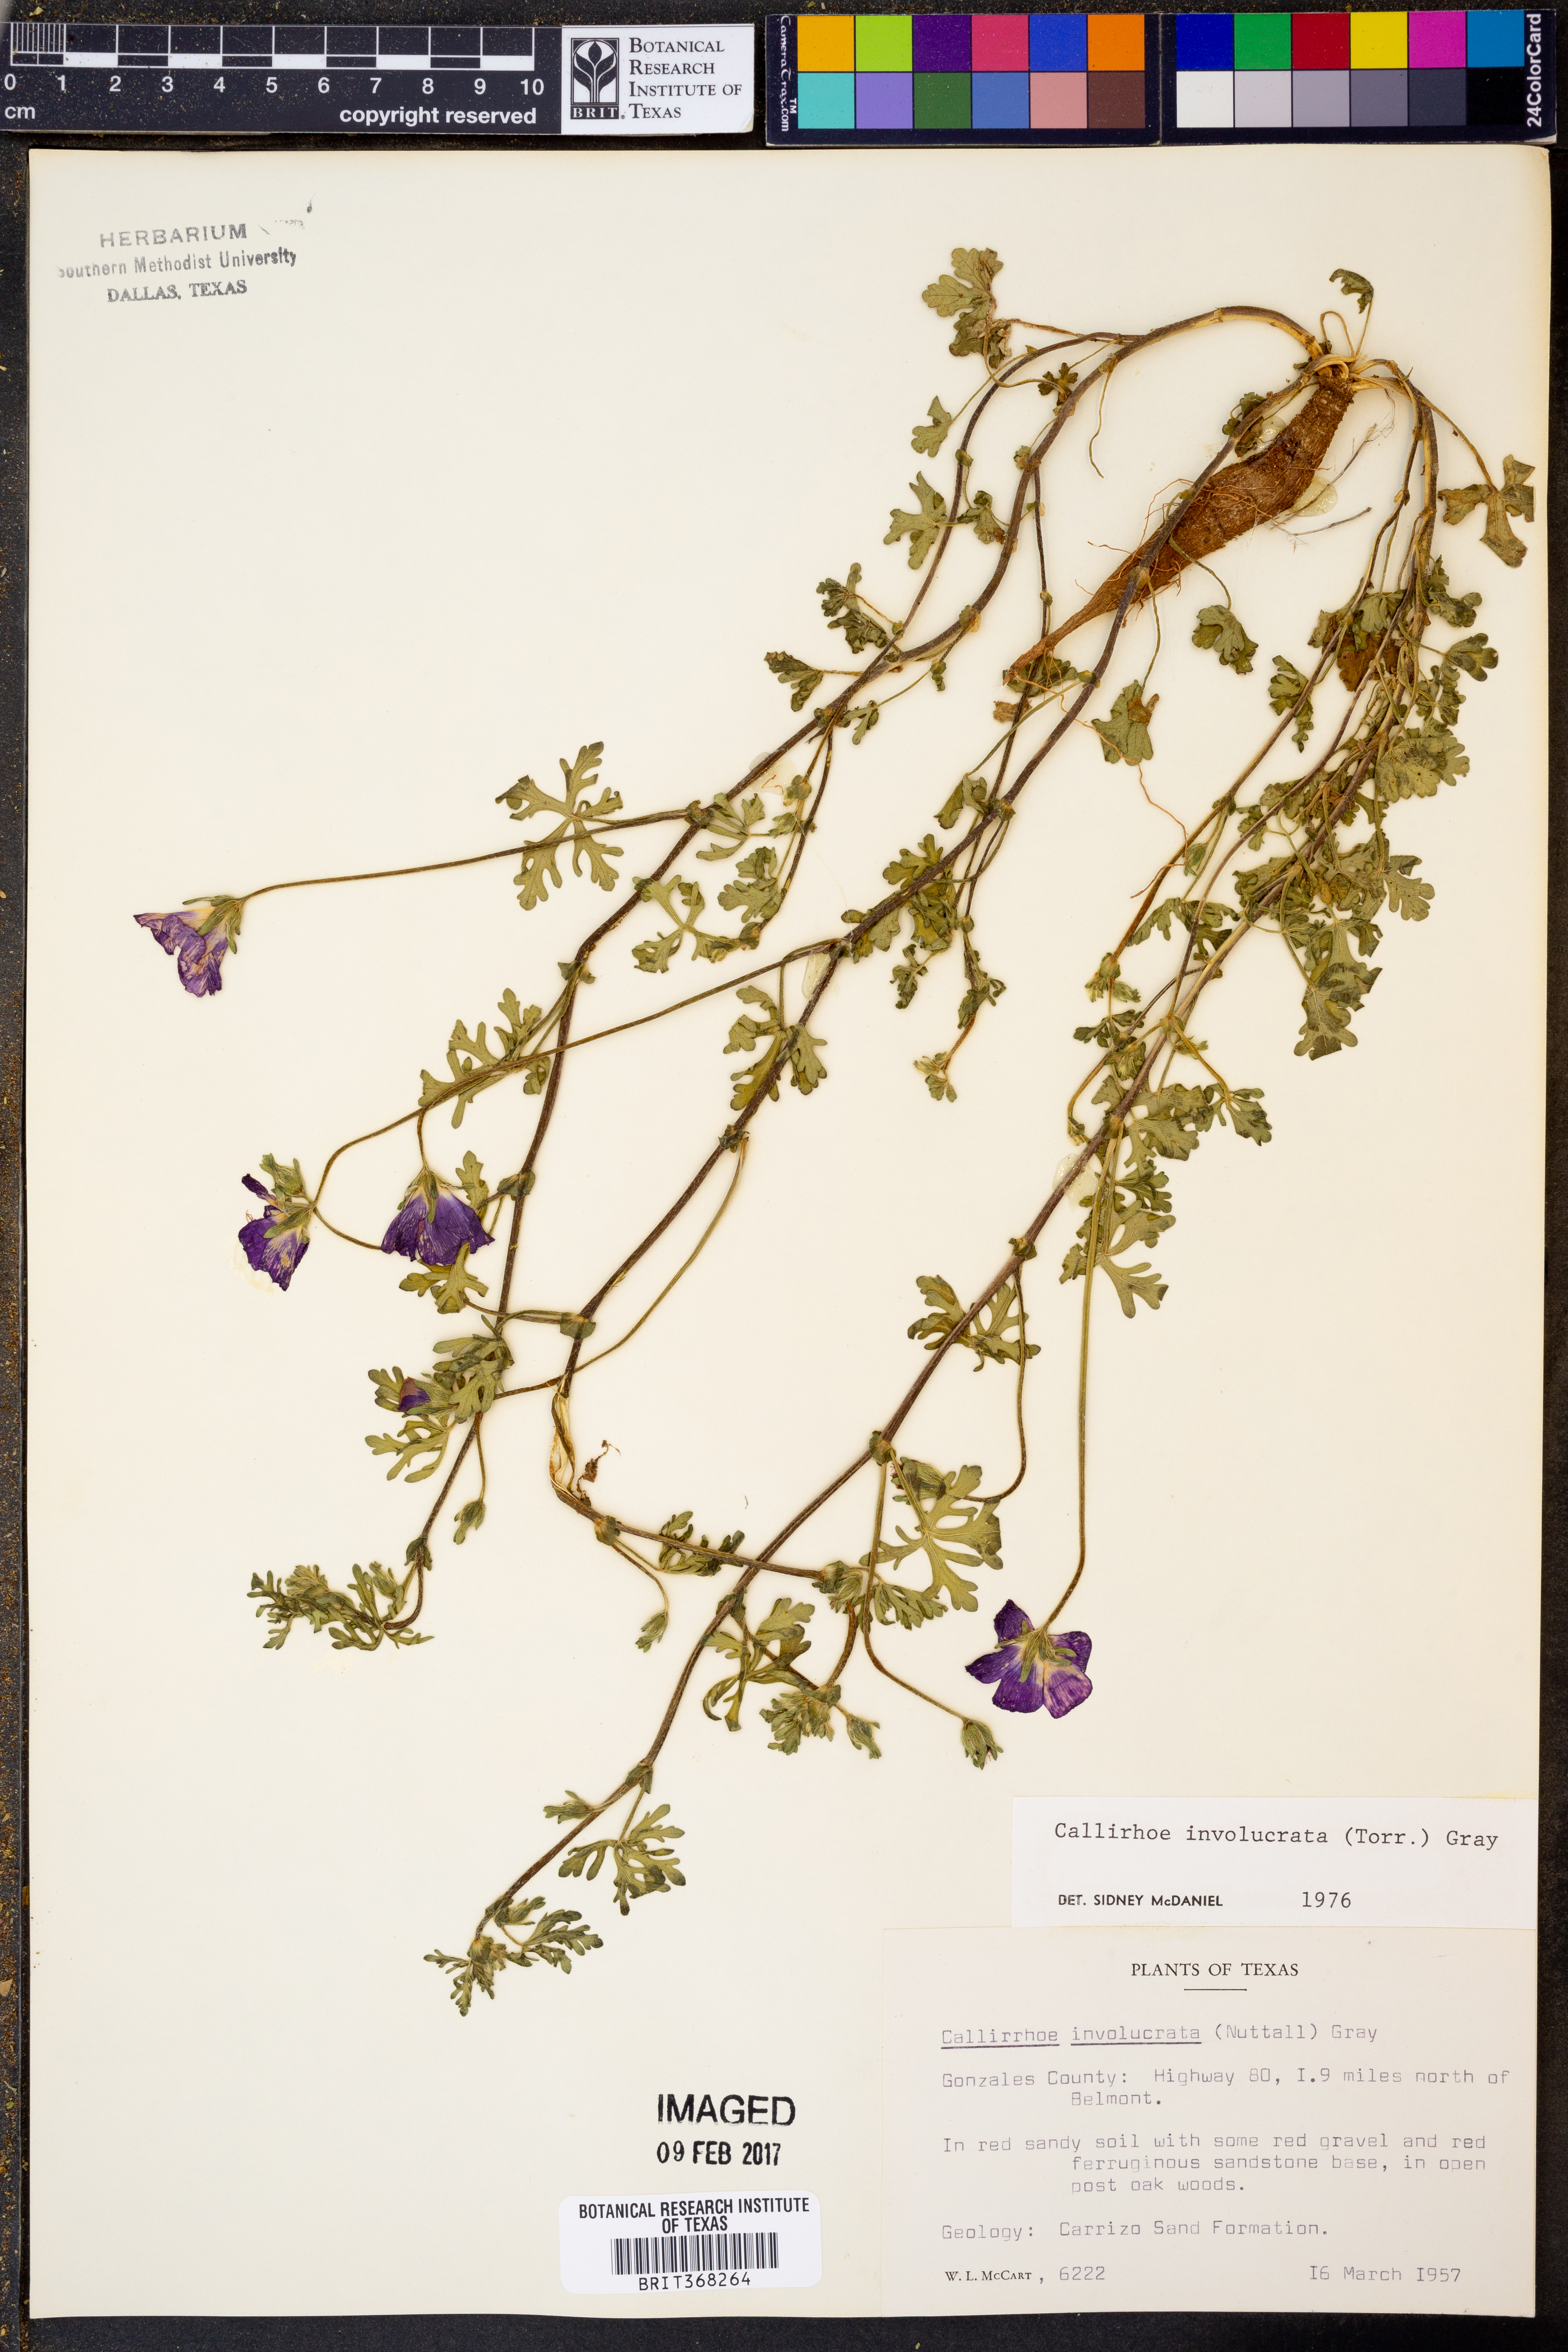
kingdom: Plantae
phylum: Tracheophyta
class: Magnoliopsida
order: Malvales
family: Malvaceae
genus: Callirhoe
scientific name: Callirhoe involucrata
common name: Purple poppy-mallow
